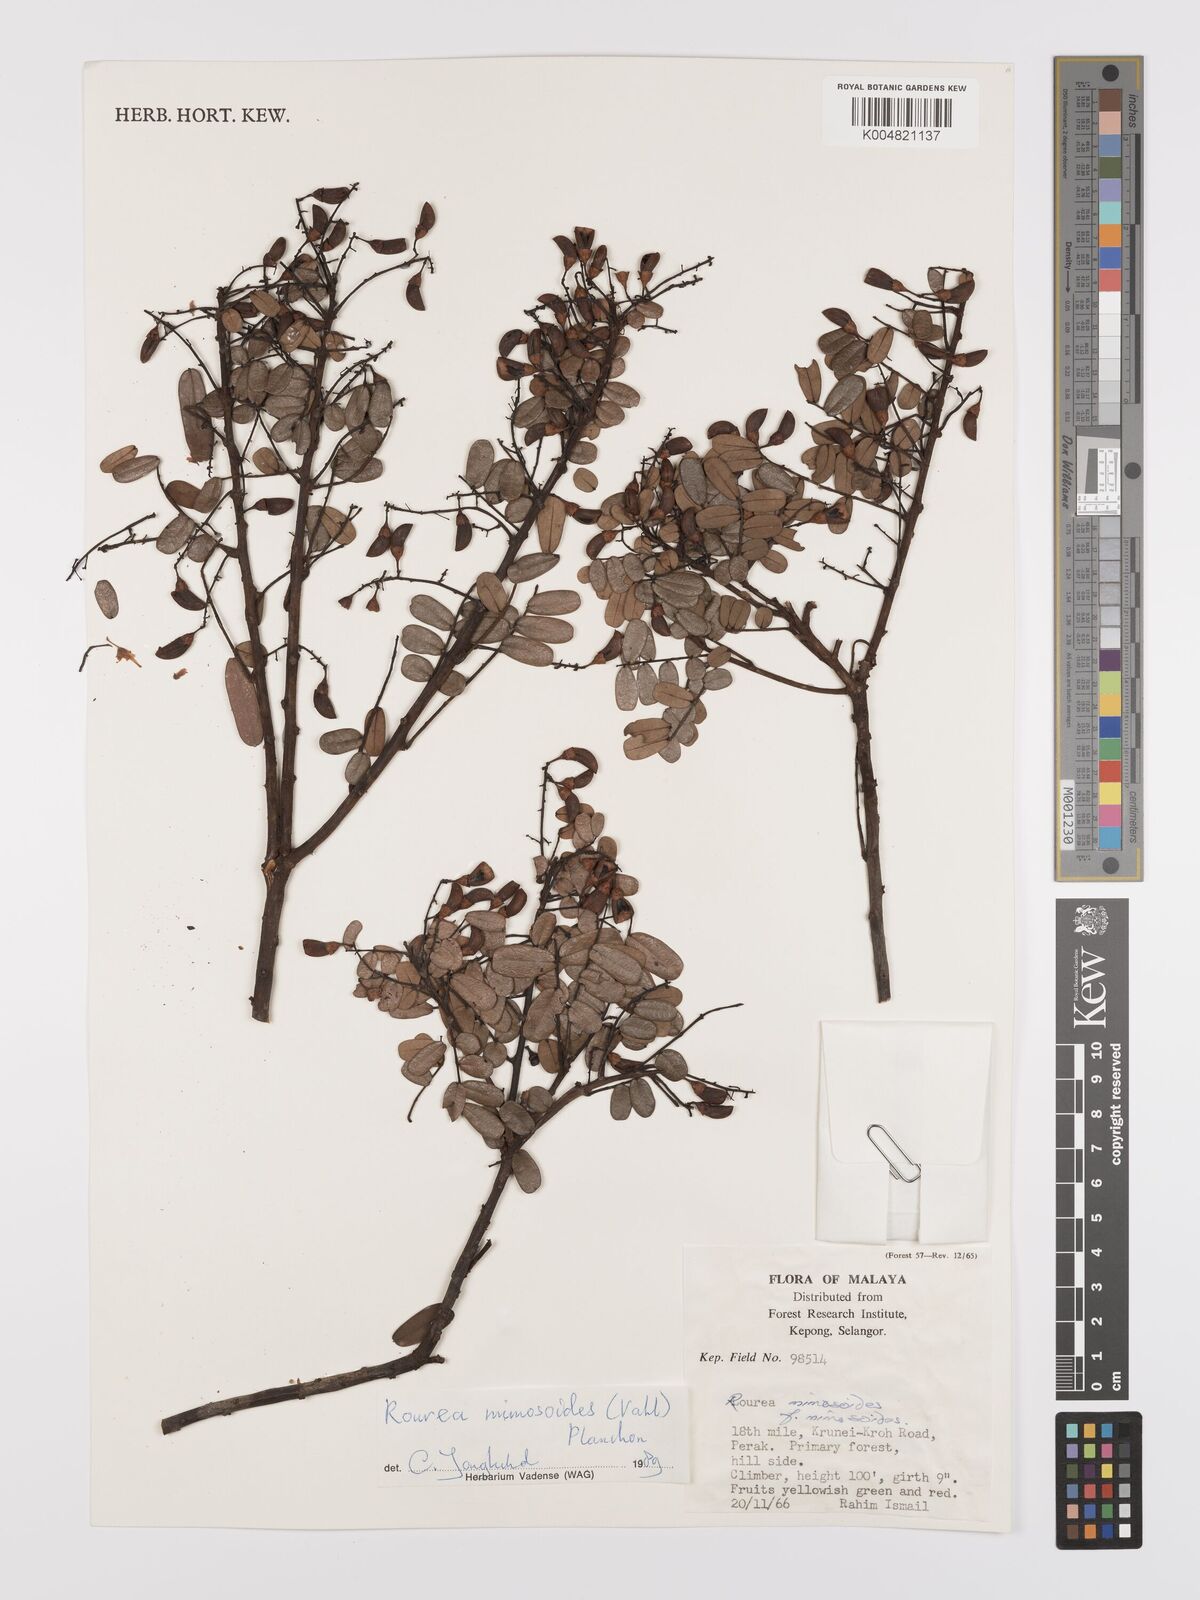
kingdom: Plantae
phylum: Tracheophyta
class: Magnoliopsida
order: Oxalidales
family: Connaraceae
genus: Rourea
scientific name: Rourea mimosoides
